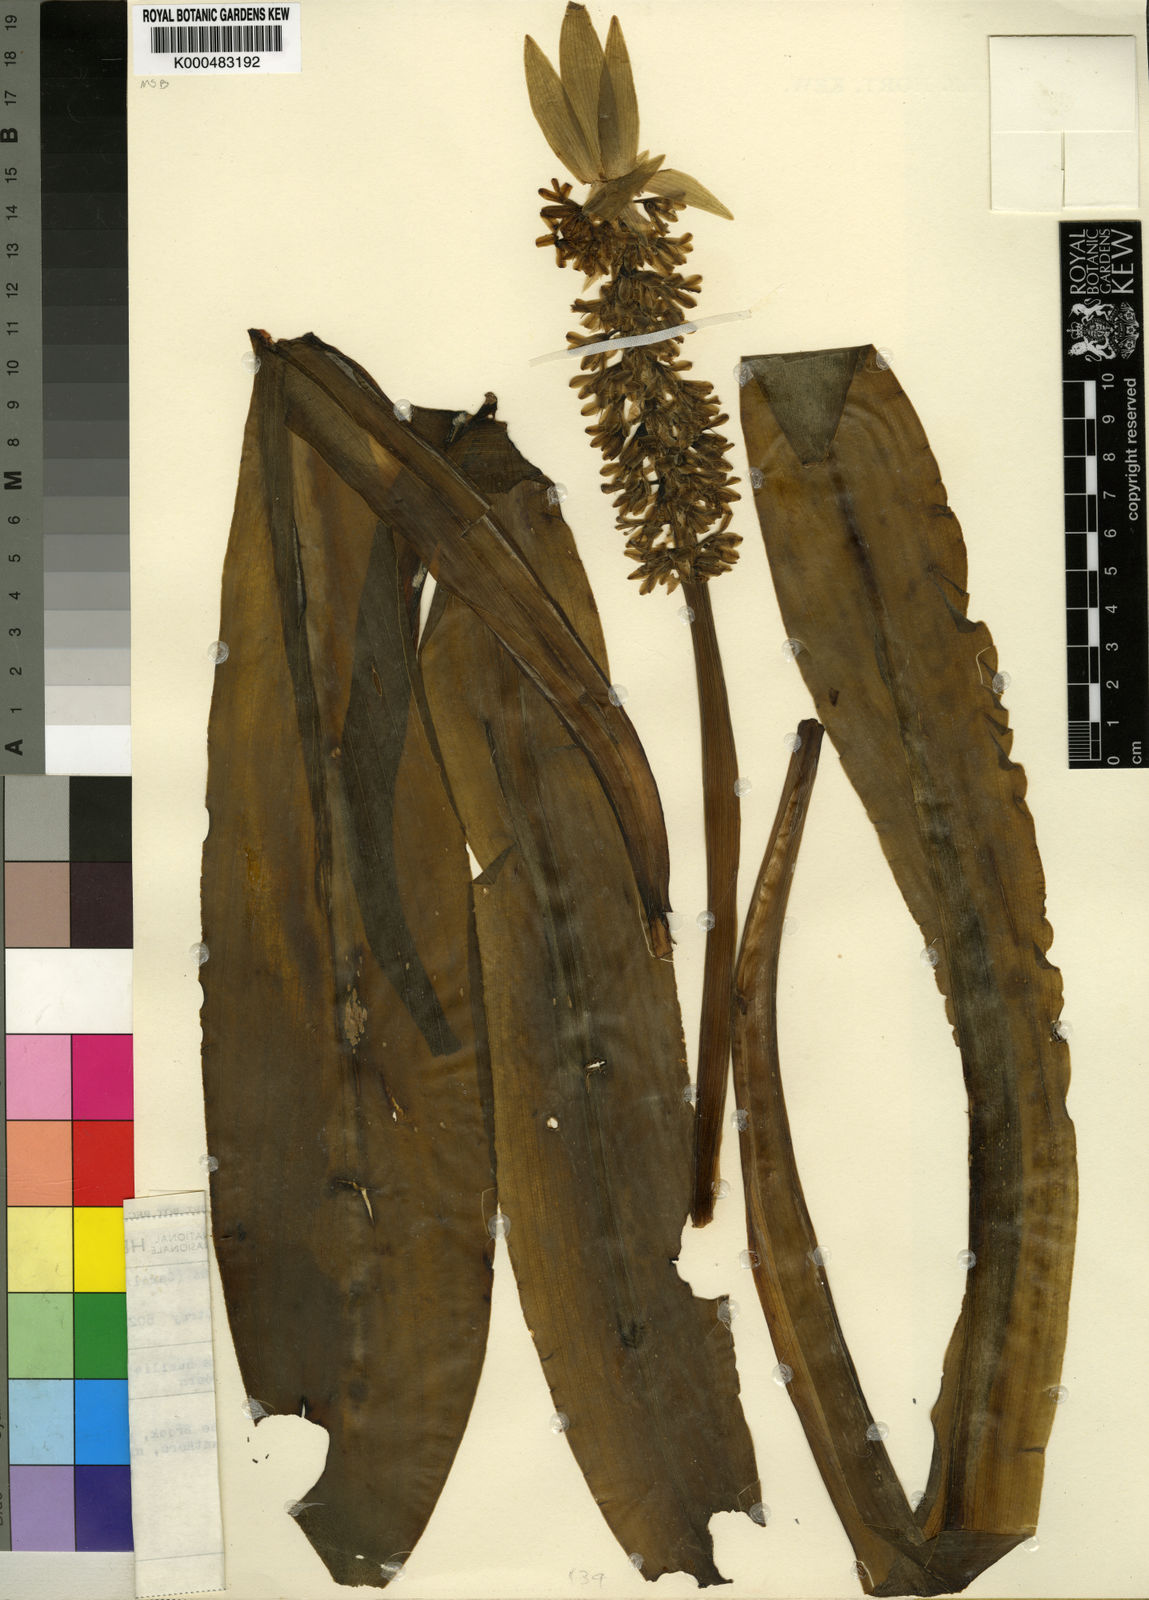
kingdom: Plantae
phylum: Tracheophyta
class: Liliopsida
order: Asparagales
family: Asparagaceae
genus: Eucomis
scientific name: Eucomis vandermerwei
